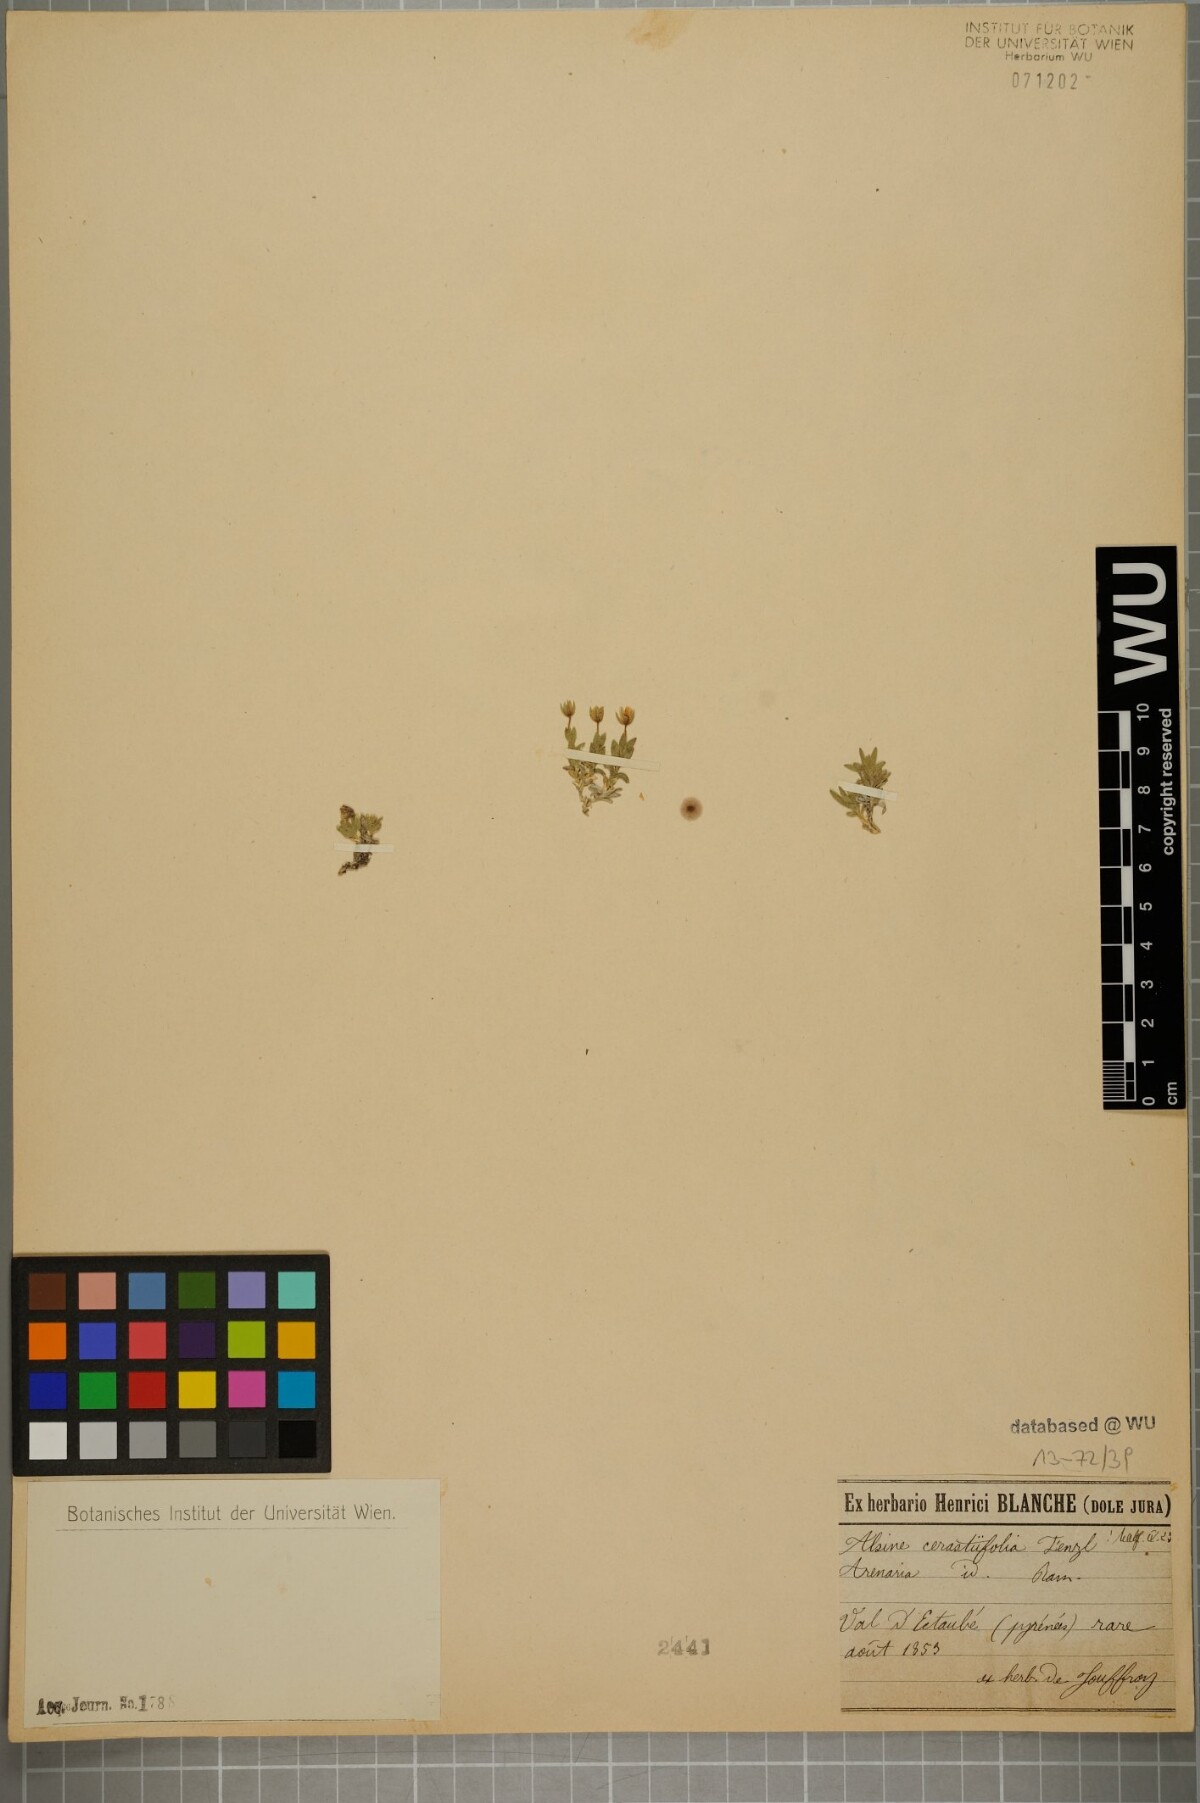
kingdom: Plantae
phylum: Tracheophyta
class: Magnoliopsida
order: Caryophyllales
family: Caryophyllaceae
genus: Facchinia
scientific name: Facchinia cerastiifolia
